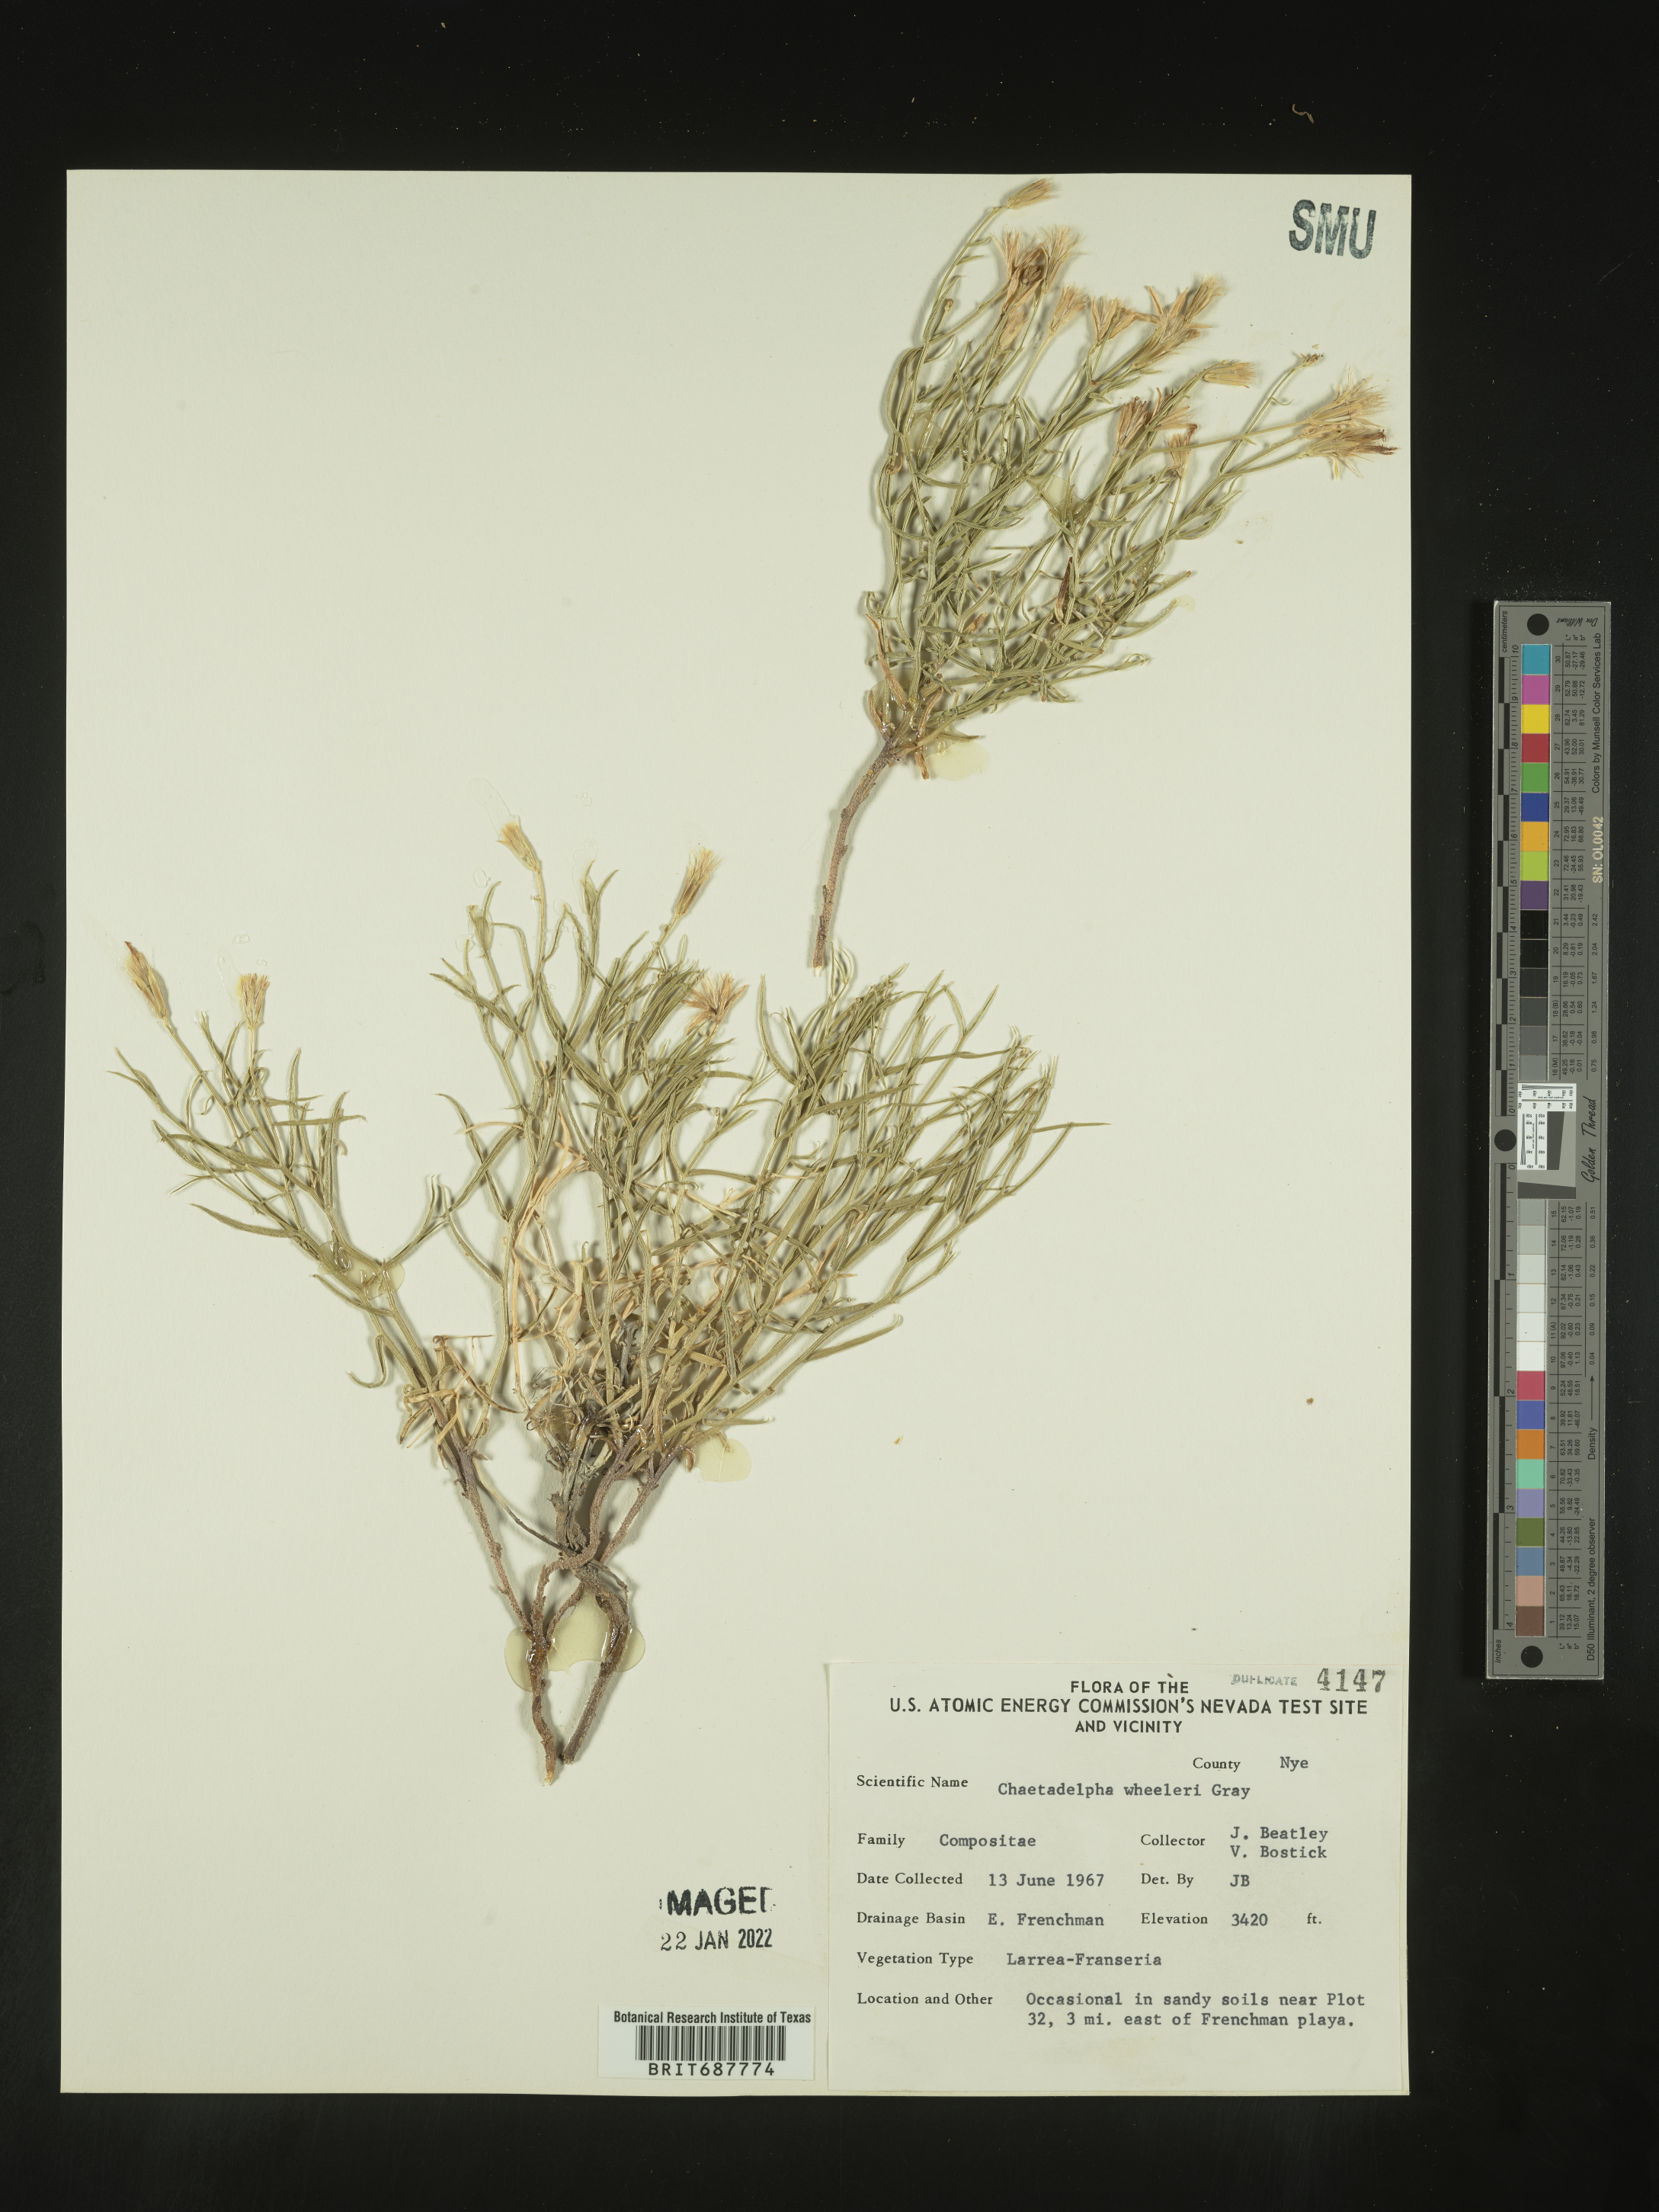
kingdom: Plantae
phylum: Tracheophyta
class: Magnoliopsida
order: Asterales
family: Asteraceae
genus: Chaetadelpha
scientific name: Chaetadelpha wheeleri
